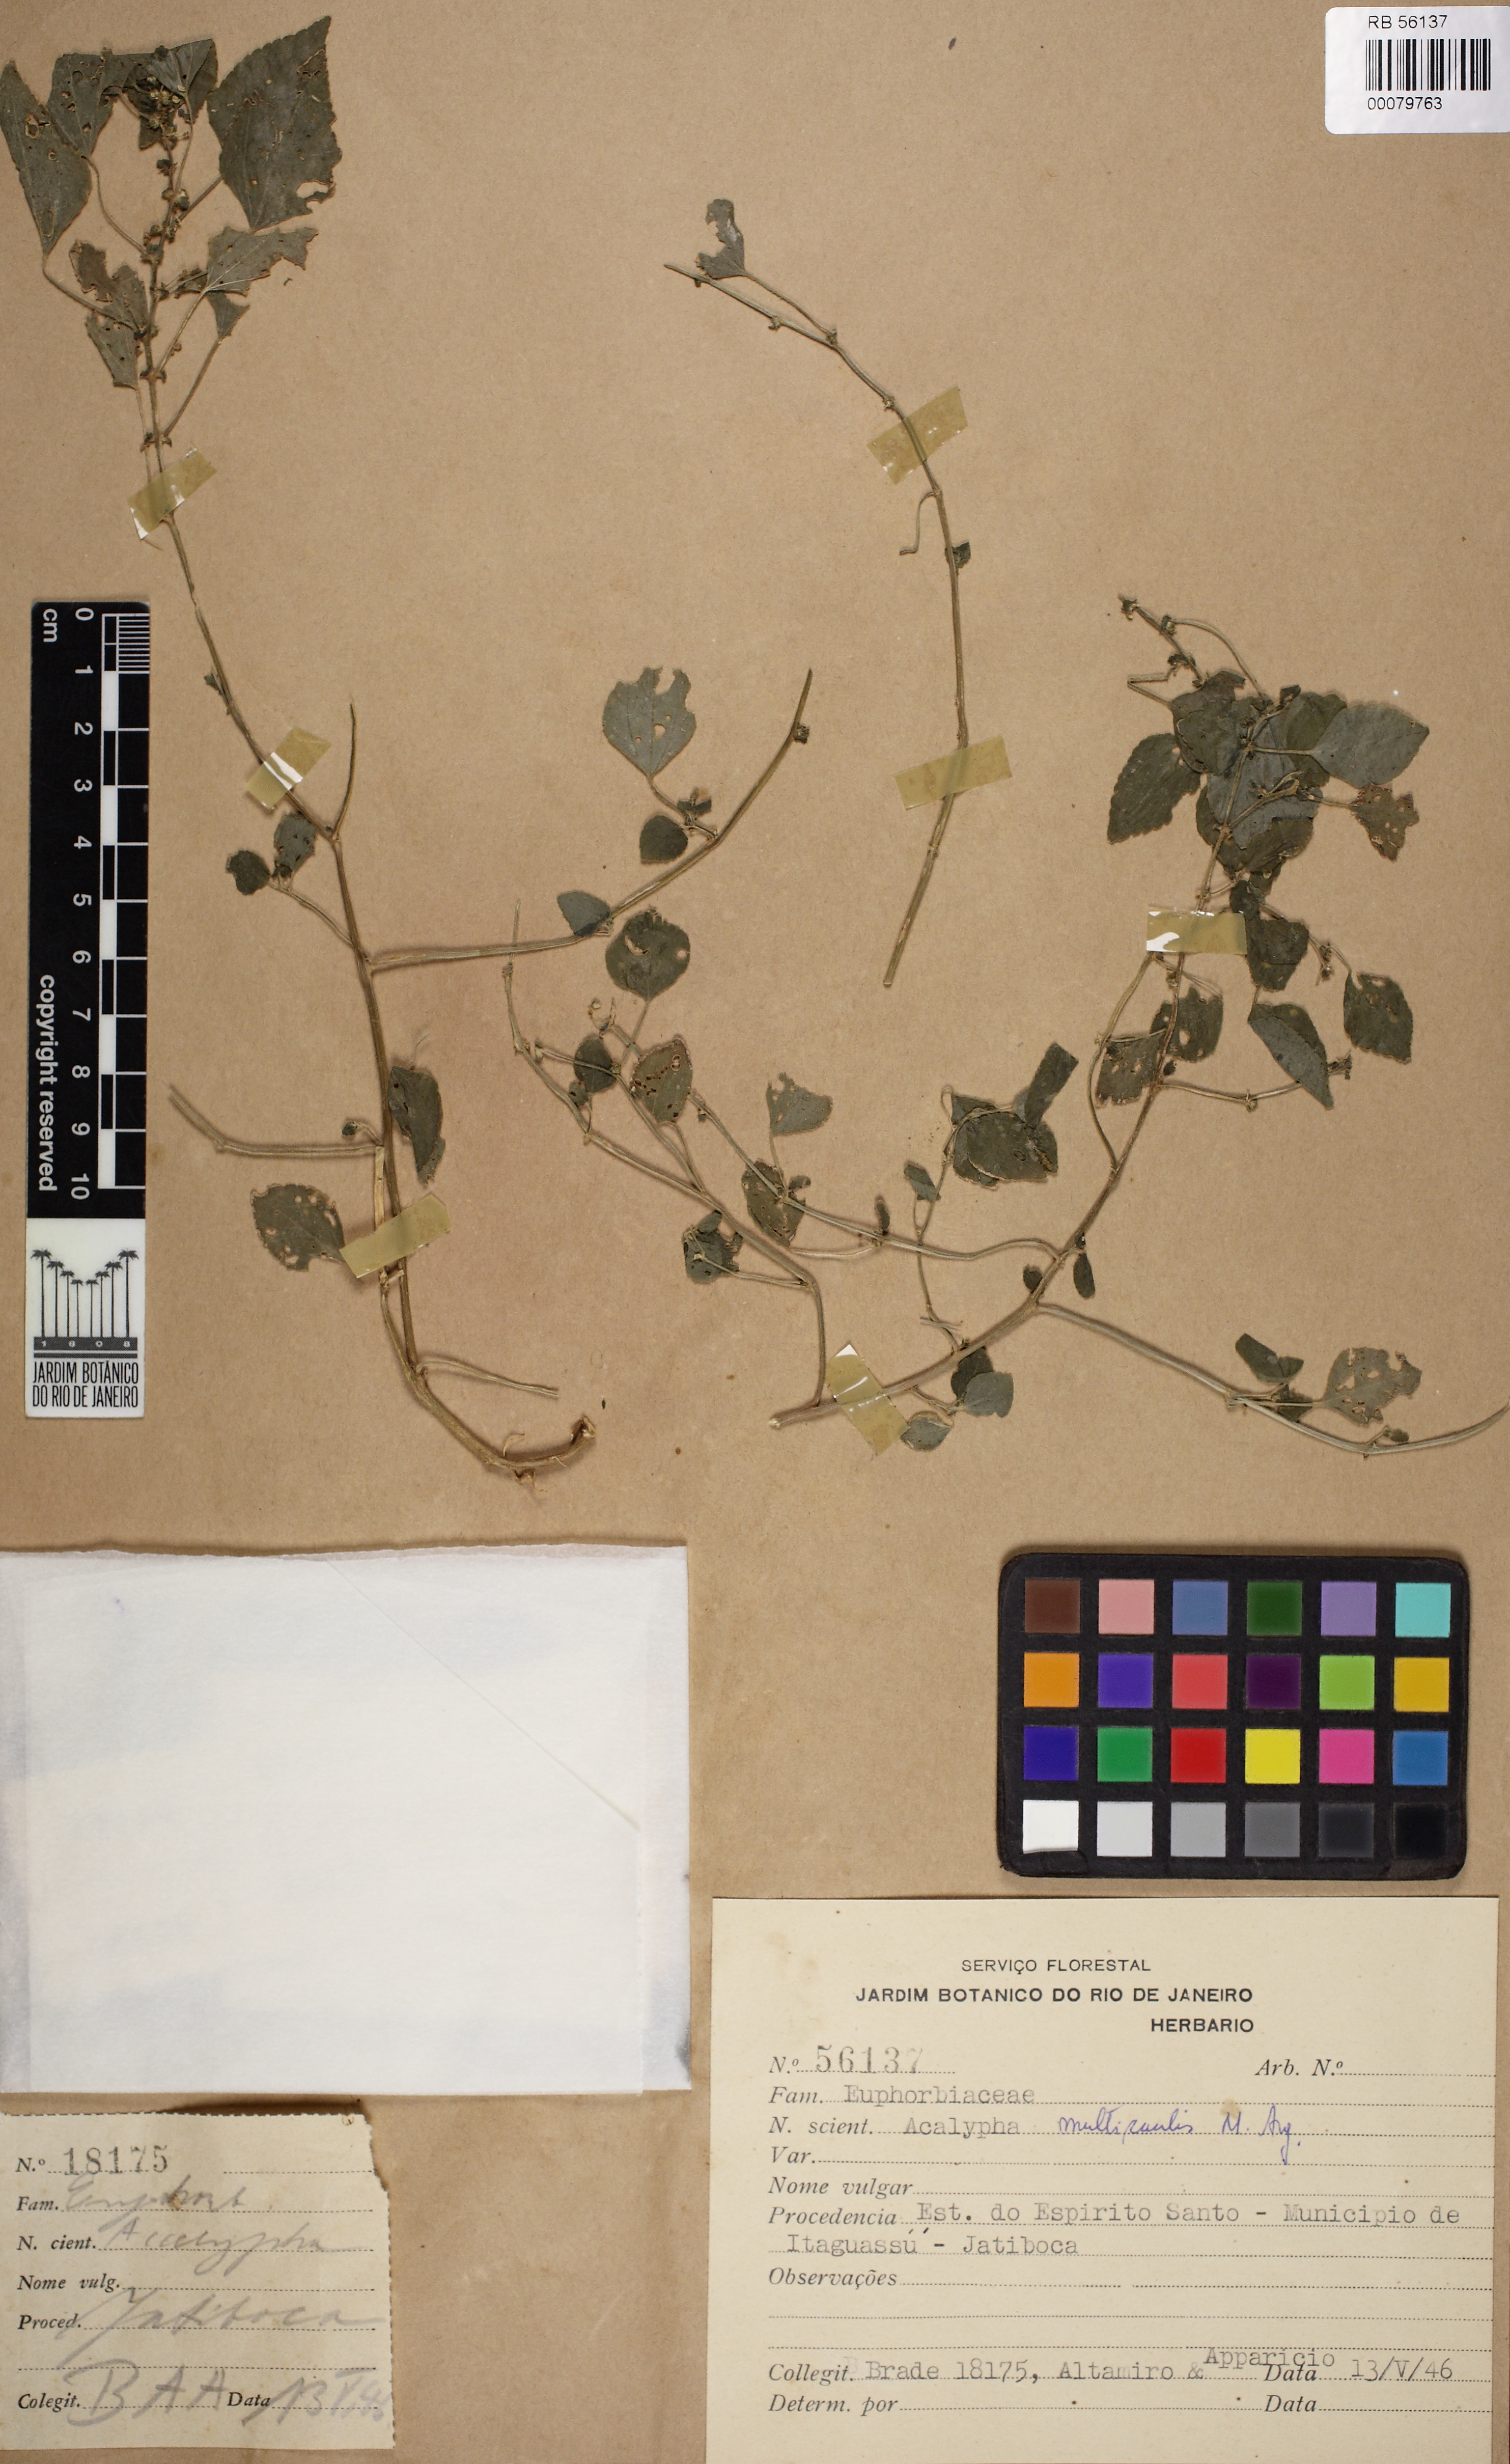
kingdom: Plantae
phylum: Tracheophyta
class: Magnoliopsida
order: Malpighiales
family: Euphorbiaceae
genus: Acalypha
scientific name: Acalypha multicaulis
